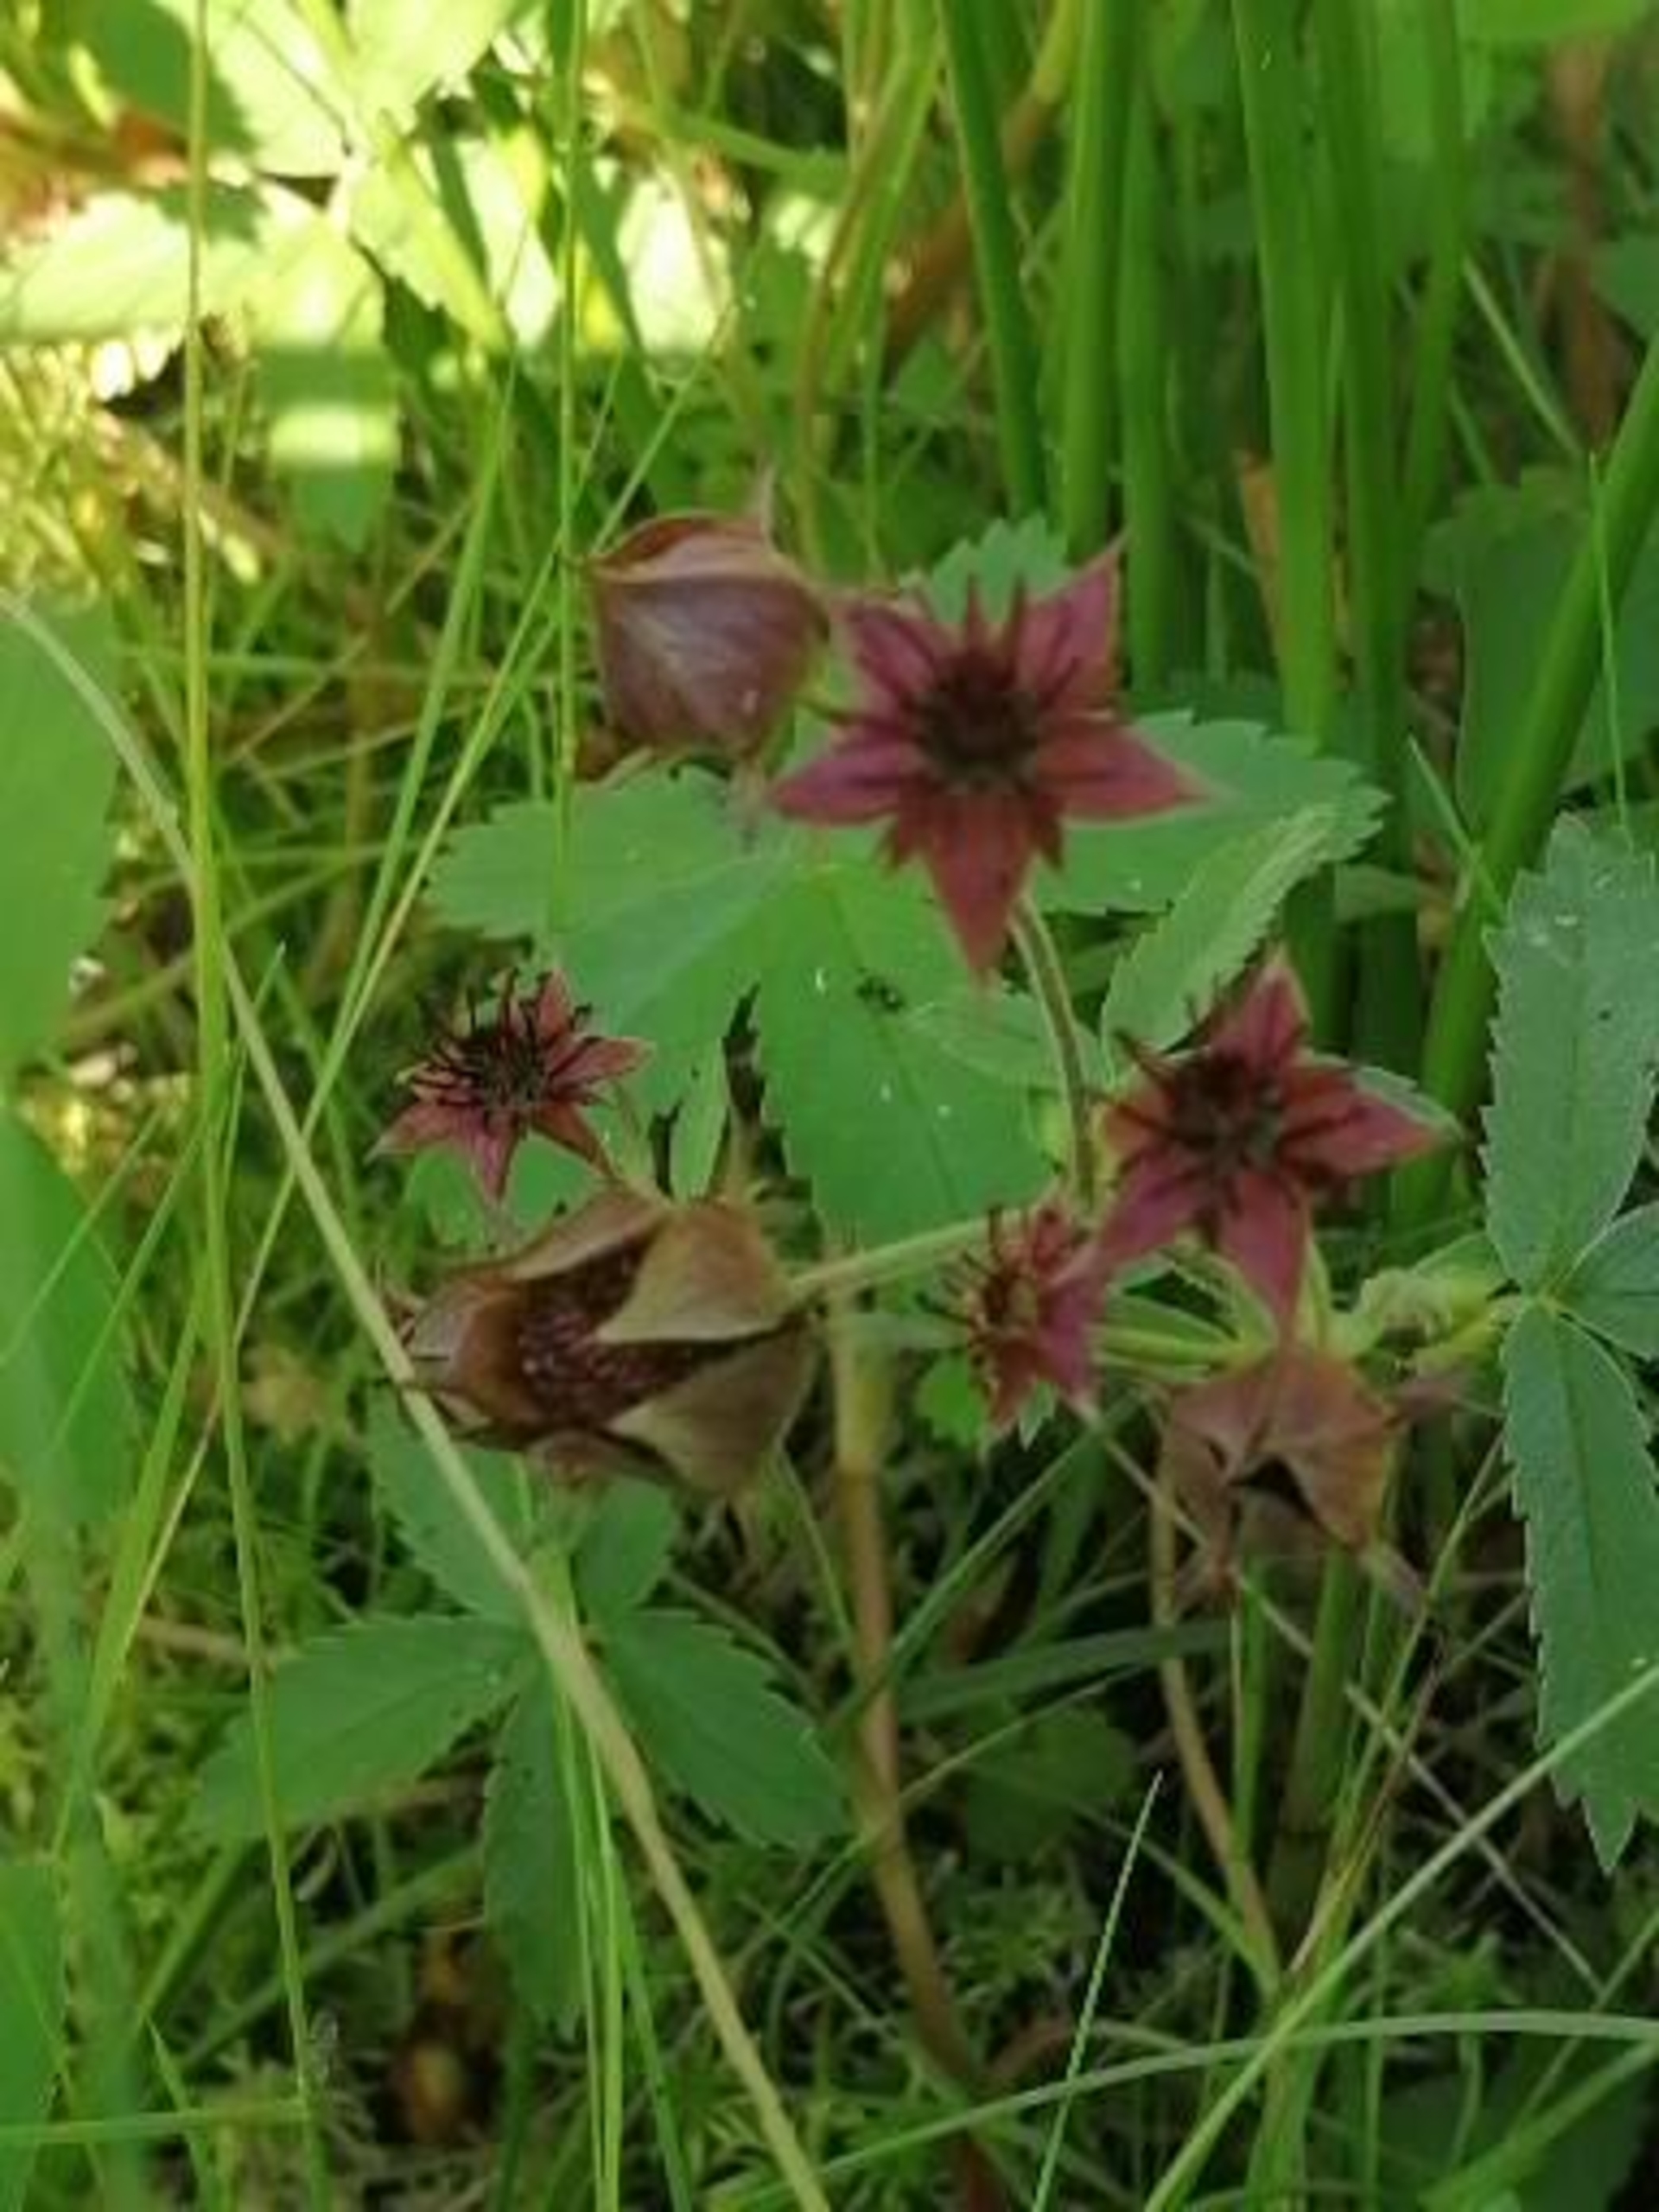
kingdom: Plantae
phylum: Tracheophyta
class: Magnoliopsida
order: Rosales
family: Rosaceae
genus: Comarum
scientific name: Comarum palustre
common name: Kragefod
